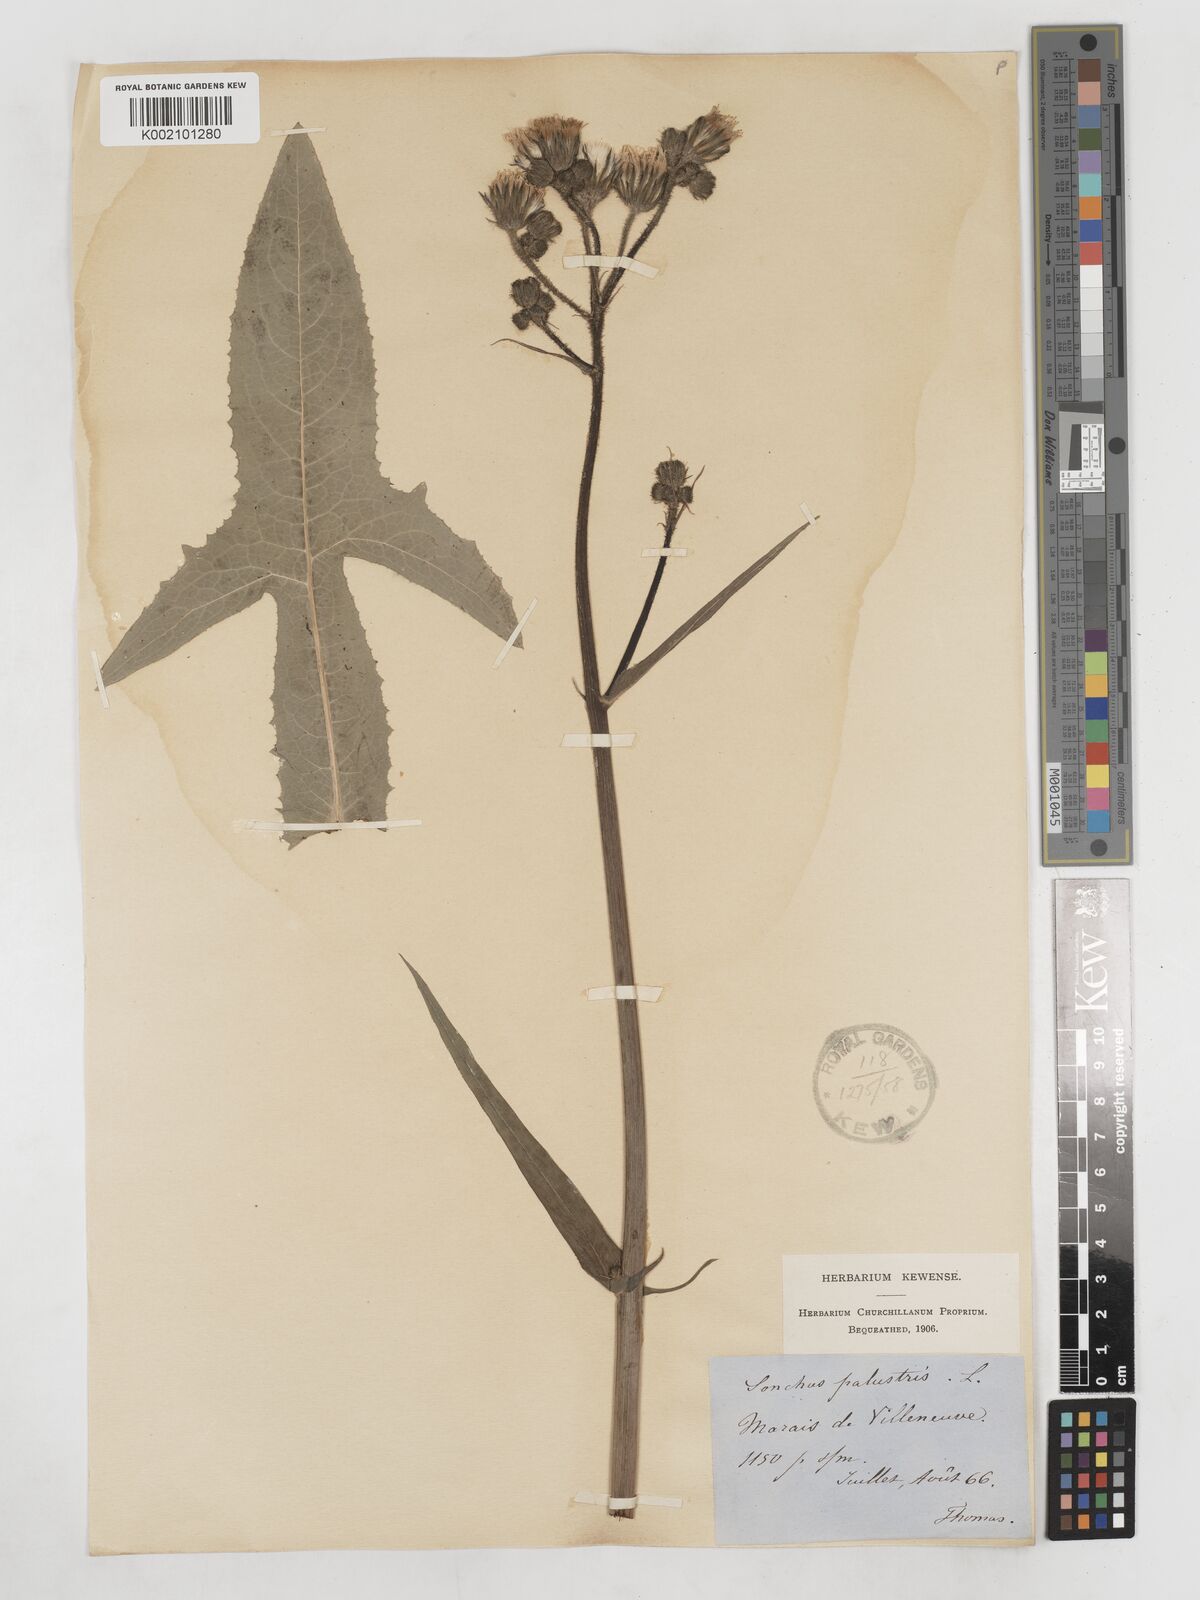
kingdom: Plantae
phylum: Tracheophyta
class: Magnoliopsida
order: Asterales
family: Asteraceae
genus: Sonchus
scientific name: Sonchus palustris
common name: Marsh sow-thistle
